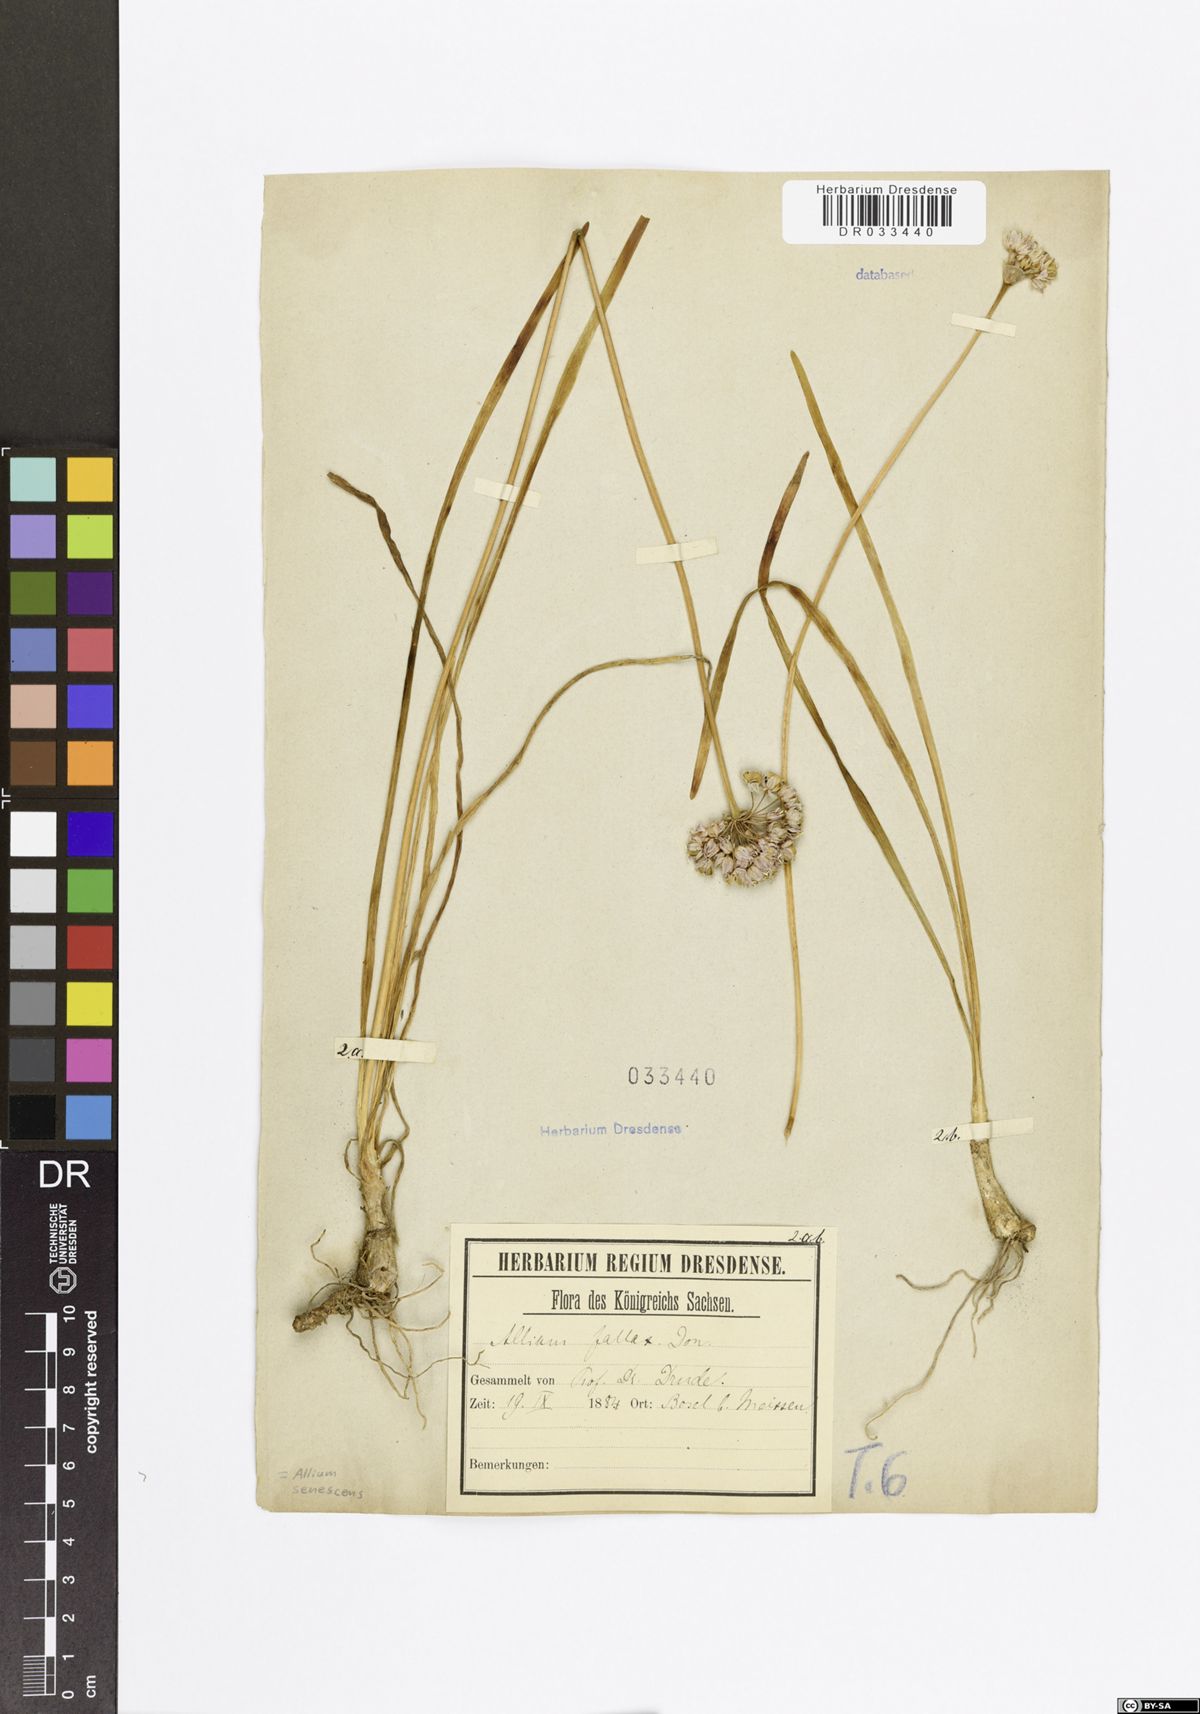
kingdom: Plantae
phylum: Tracheophyta
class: Liliopsida
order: Asparagales
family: Amaryllidaceae
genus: Allium
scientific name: Allium senescens
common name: German garlic
